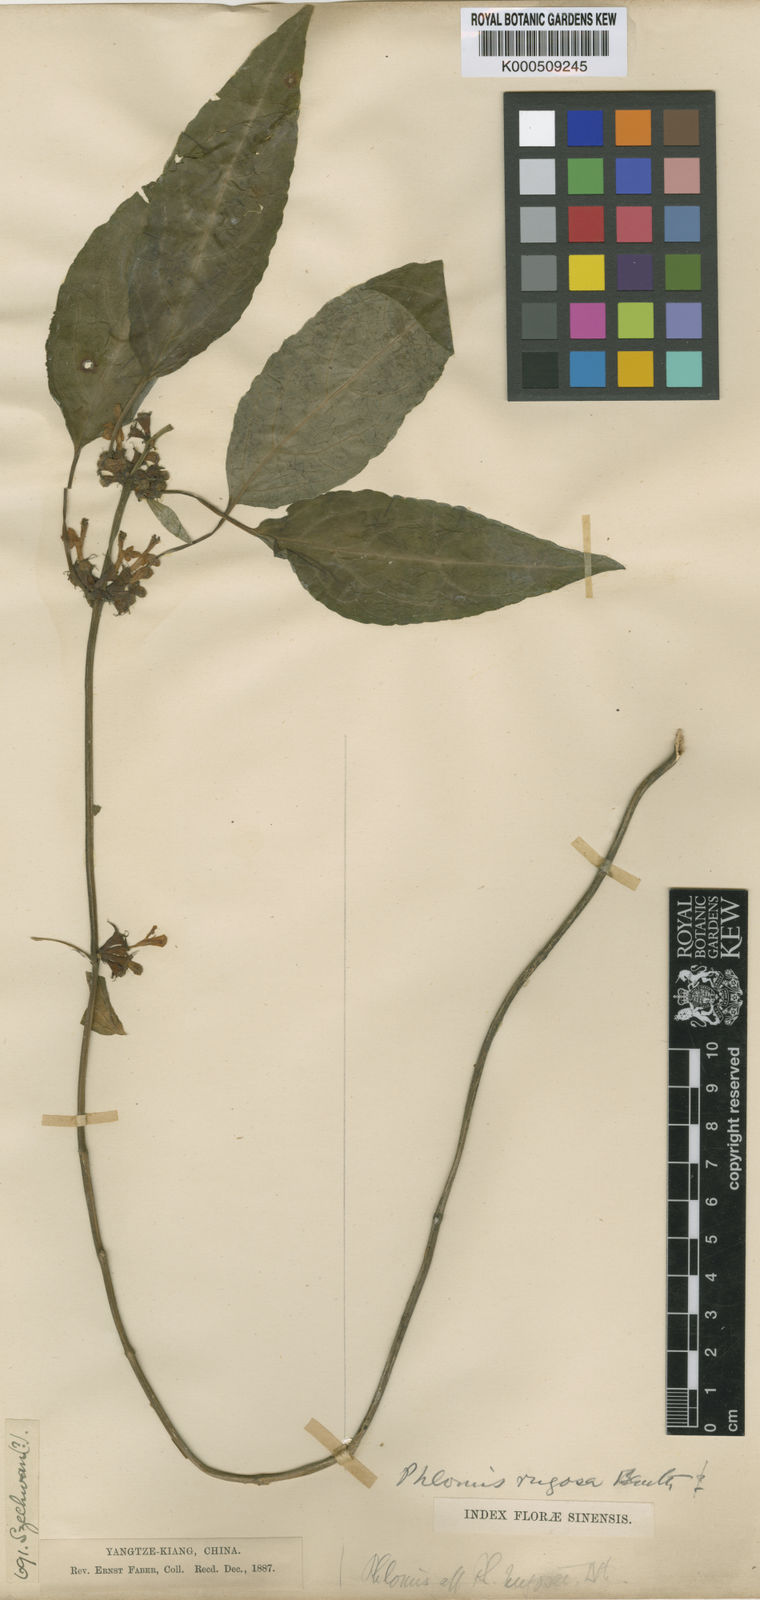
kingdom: Plantae
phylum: Tracheophyta
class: Magnoliopsida
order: Lamiales
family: Lamiaceae
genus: Paraphlomis
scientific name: Paraphlomis javanica
